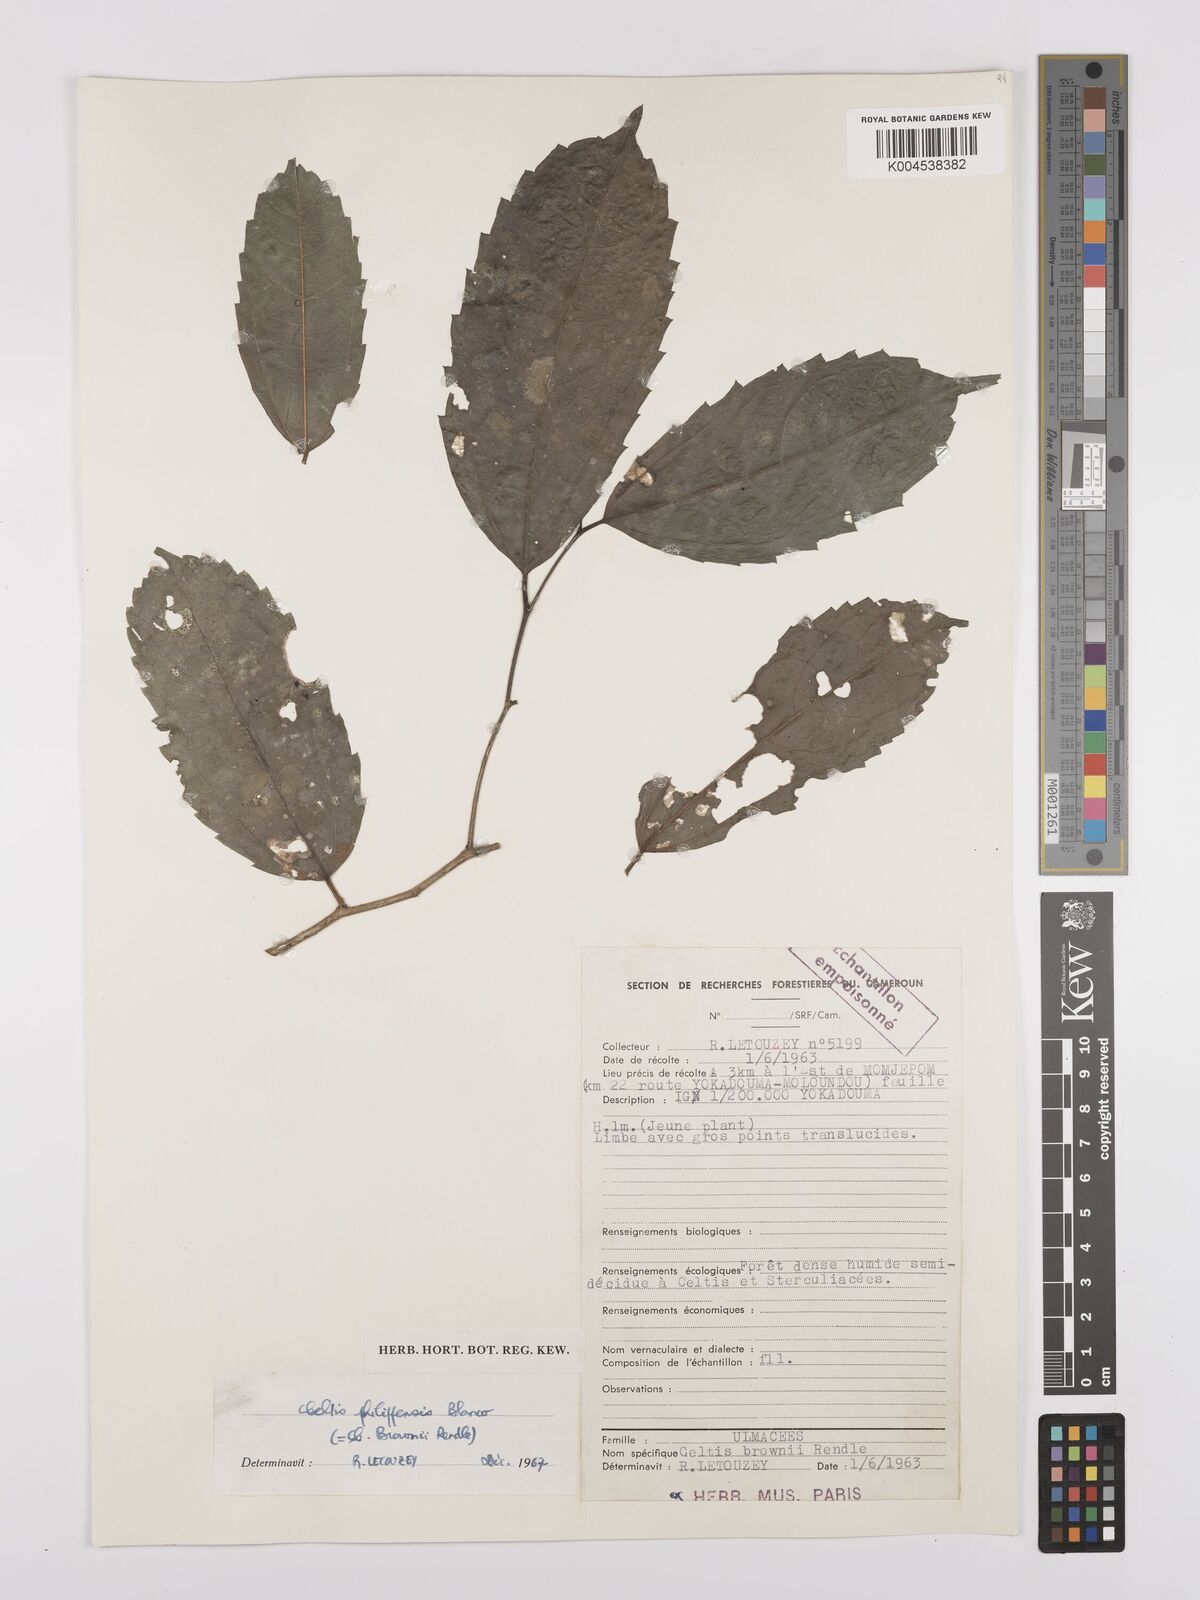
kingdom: Plantae
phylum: Tracheophyta
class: Magnoliopsida
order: Rosales
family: Cannabaceae
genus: Celtis
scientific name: Celtis philippensis
